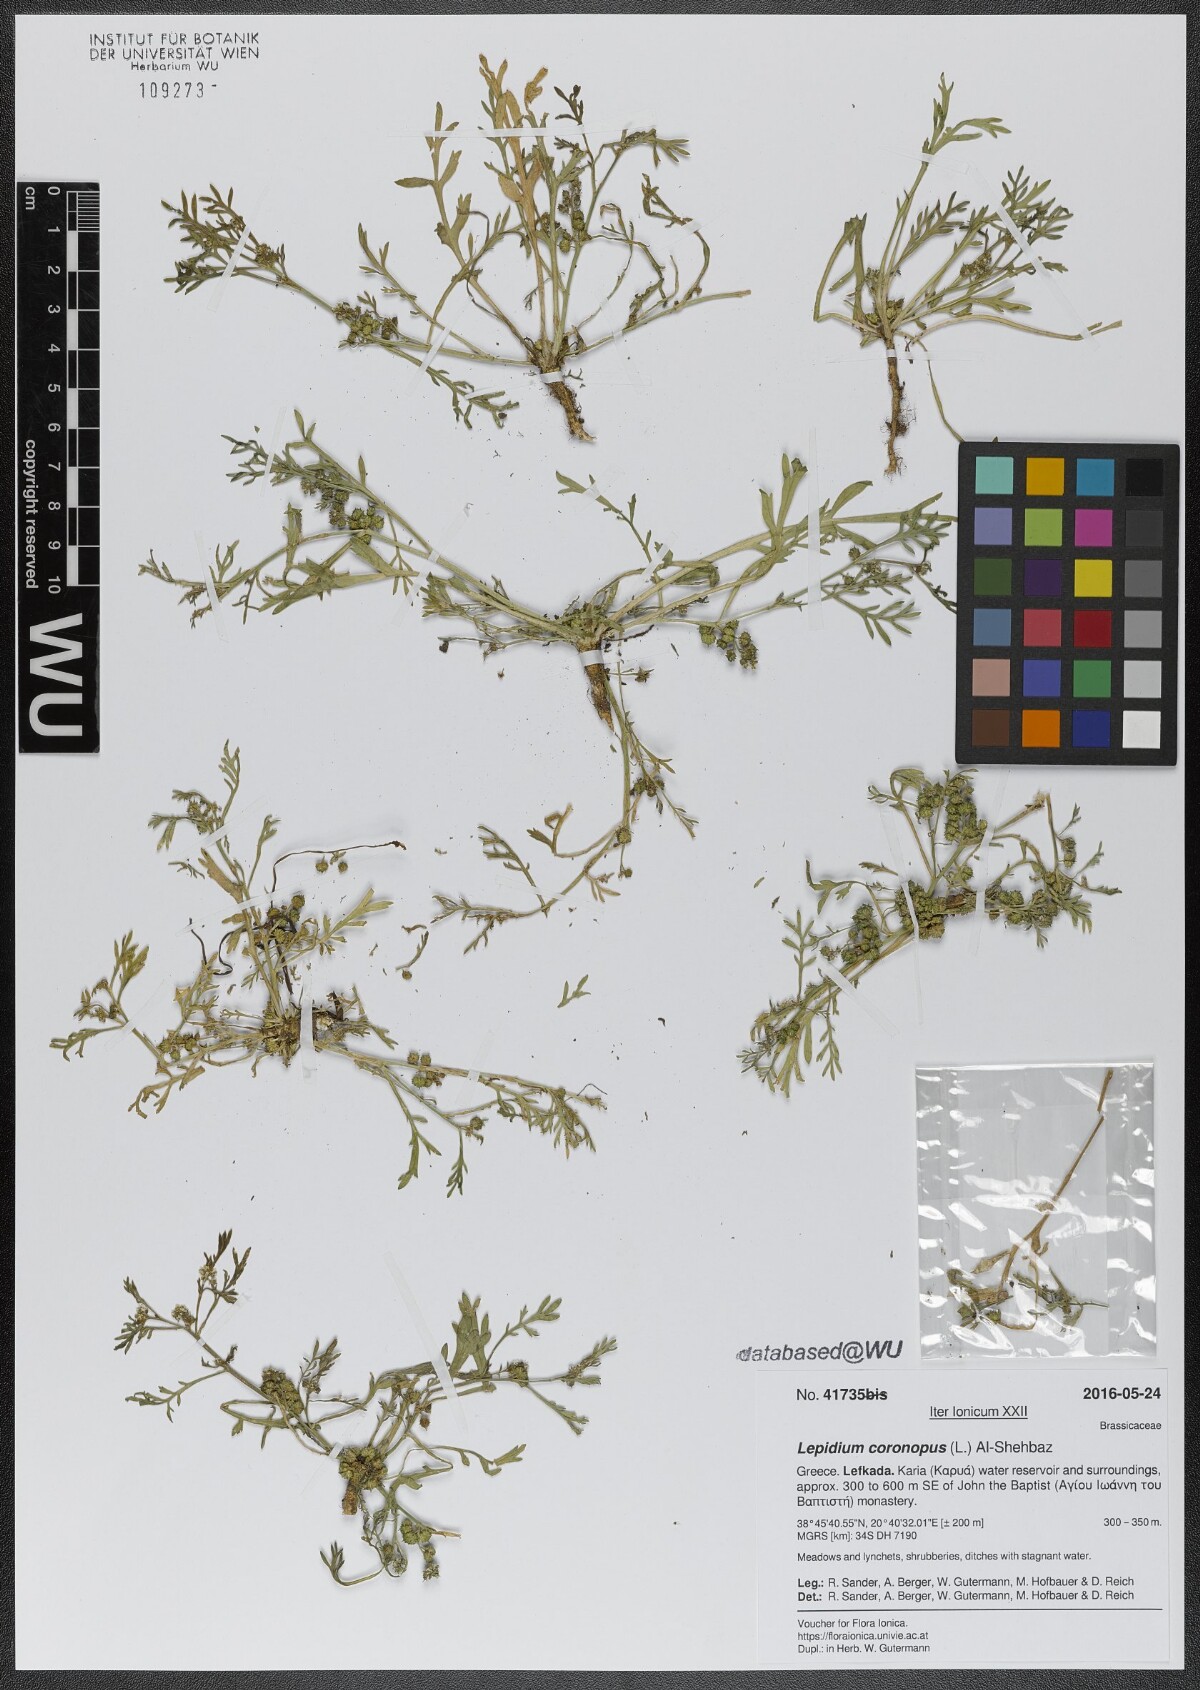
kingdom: Plantae
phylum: Tracheophyta
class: Magnoliopsida
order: Brassicales
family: Brassicaceae
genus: Lepidium
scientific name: Lepidium coronopus
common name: Greater swinecress
